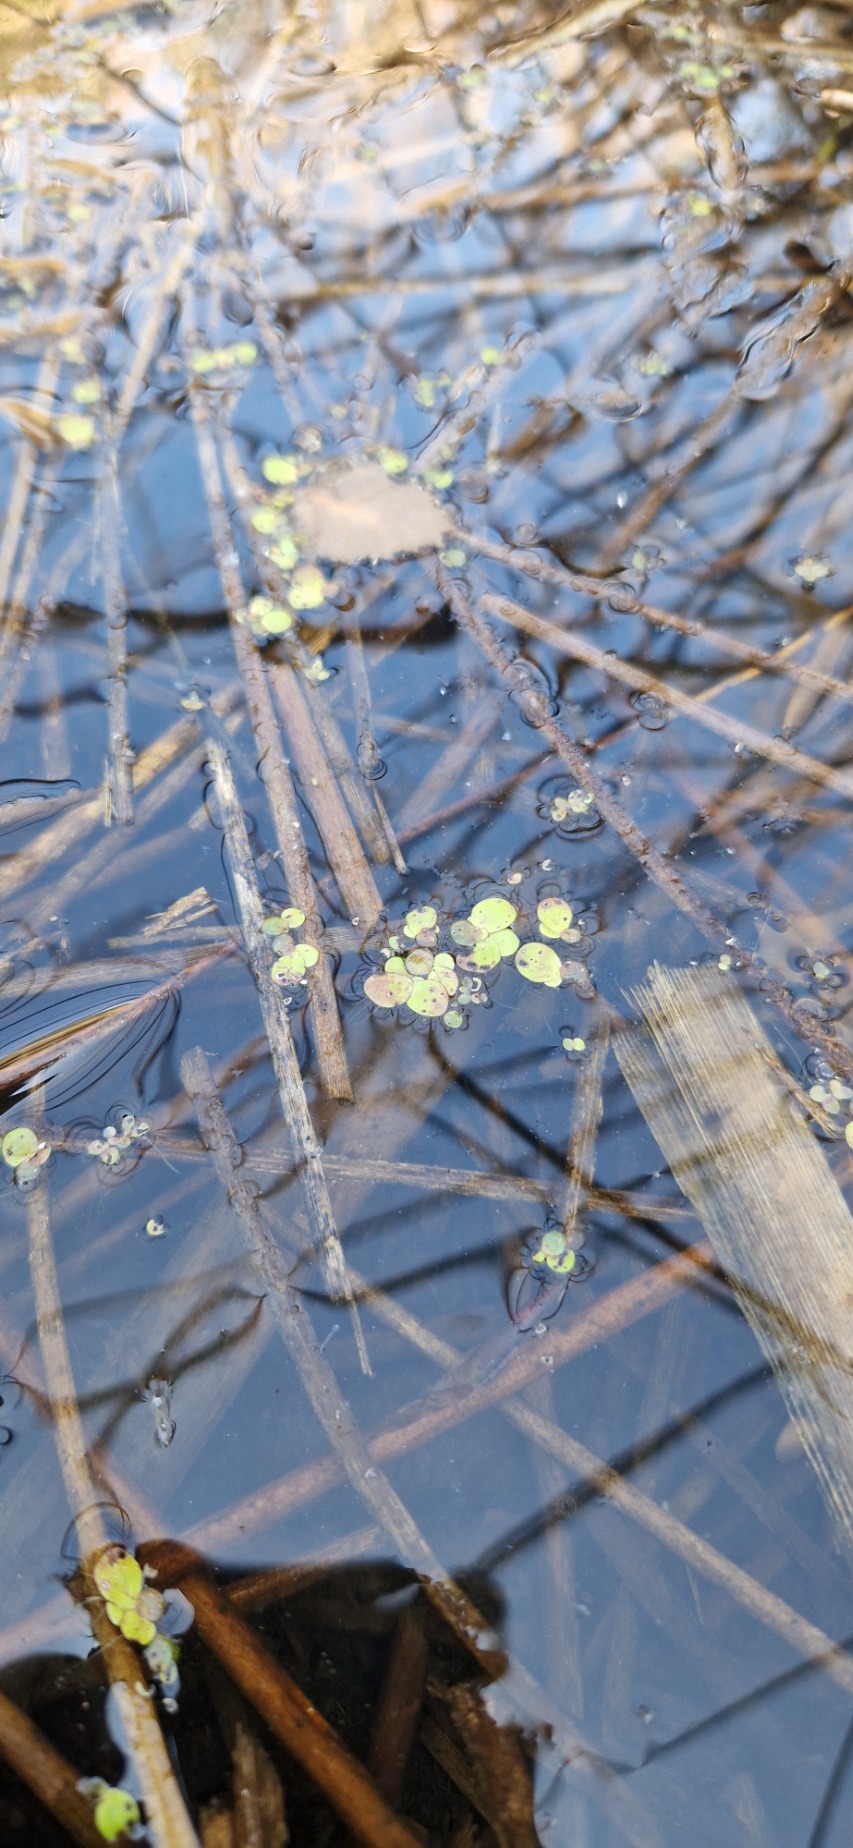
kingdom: Plantae
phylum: Tracheophyta
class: Liliopsida
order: Alismatales
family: Araceae
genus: Spirodela
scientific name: Spirodela polyrhiza
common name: Stor andemad
